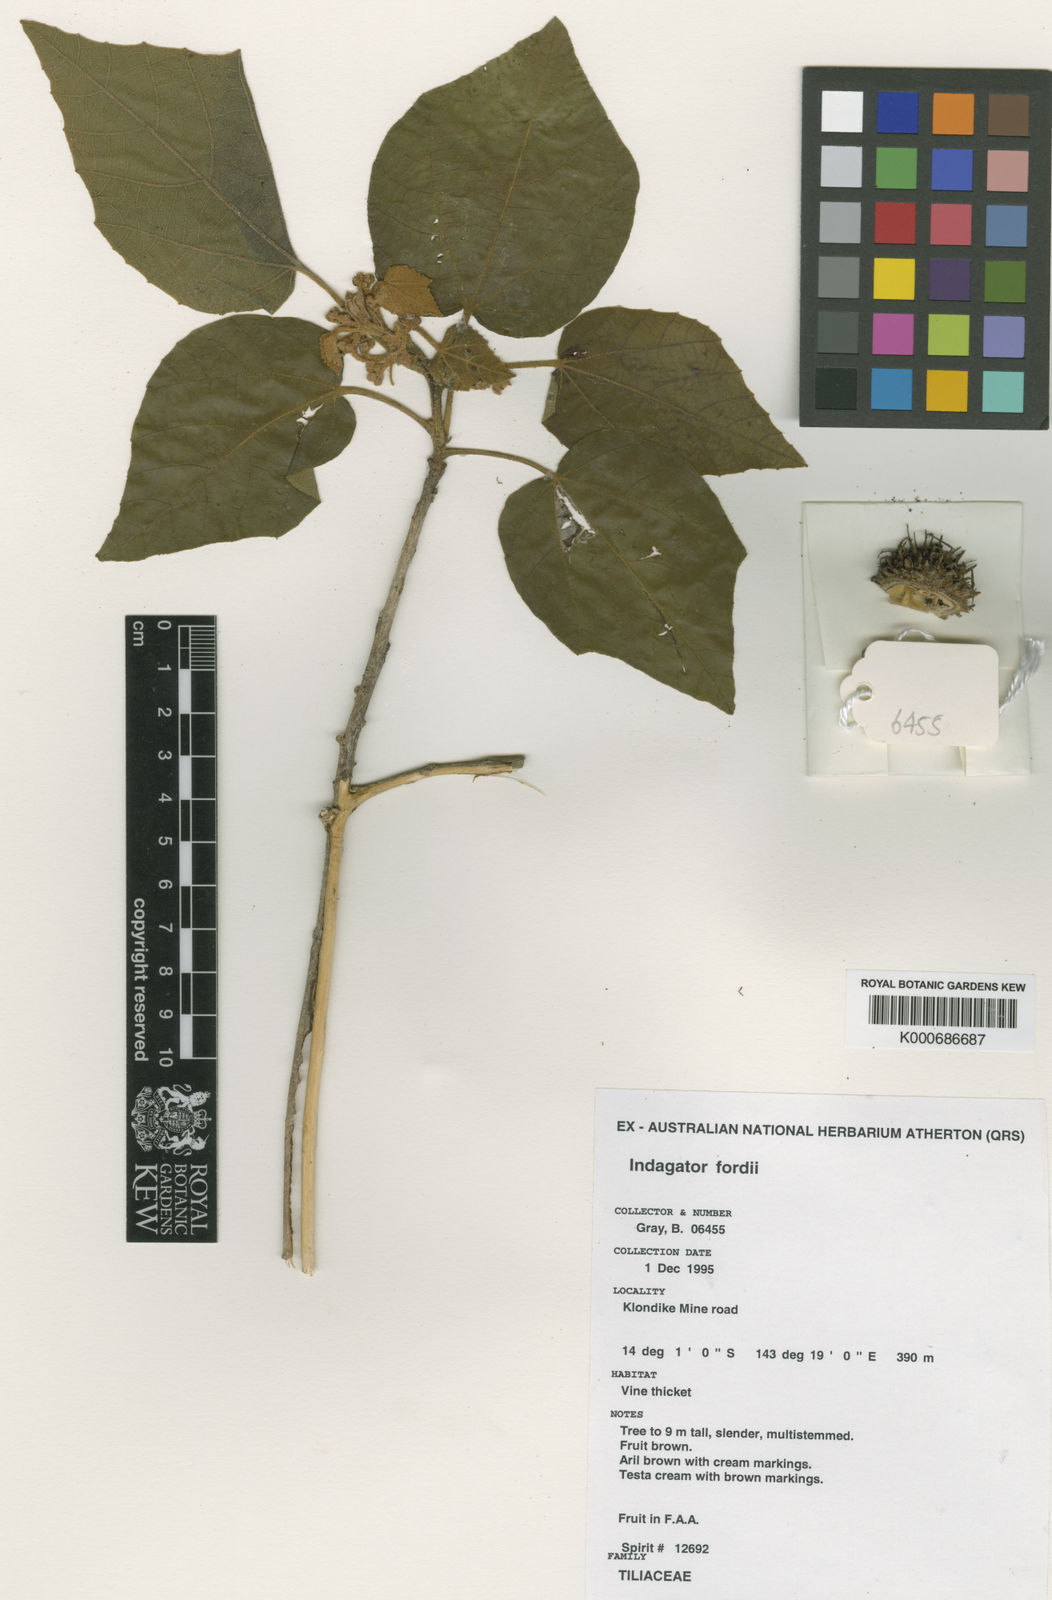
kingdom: Plantae
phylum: Tracheophyta
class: Magnoliopsida
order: Malvales
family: Malvaceae
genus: Indagator
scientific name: Indagator fordii
